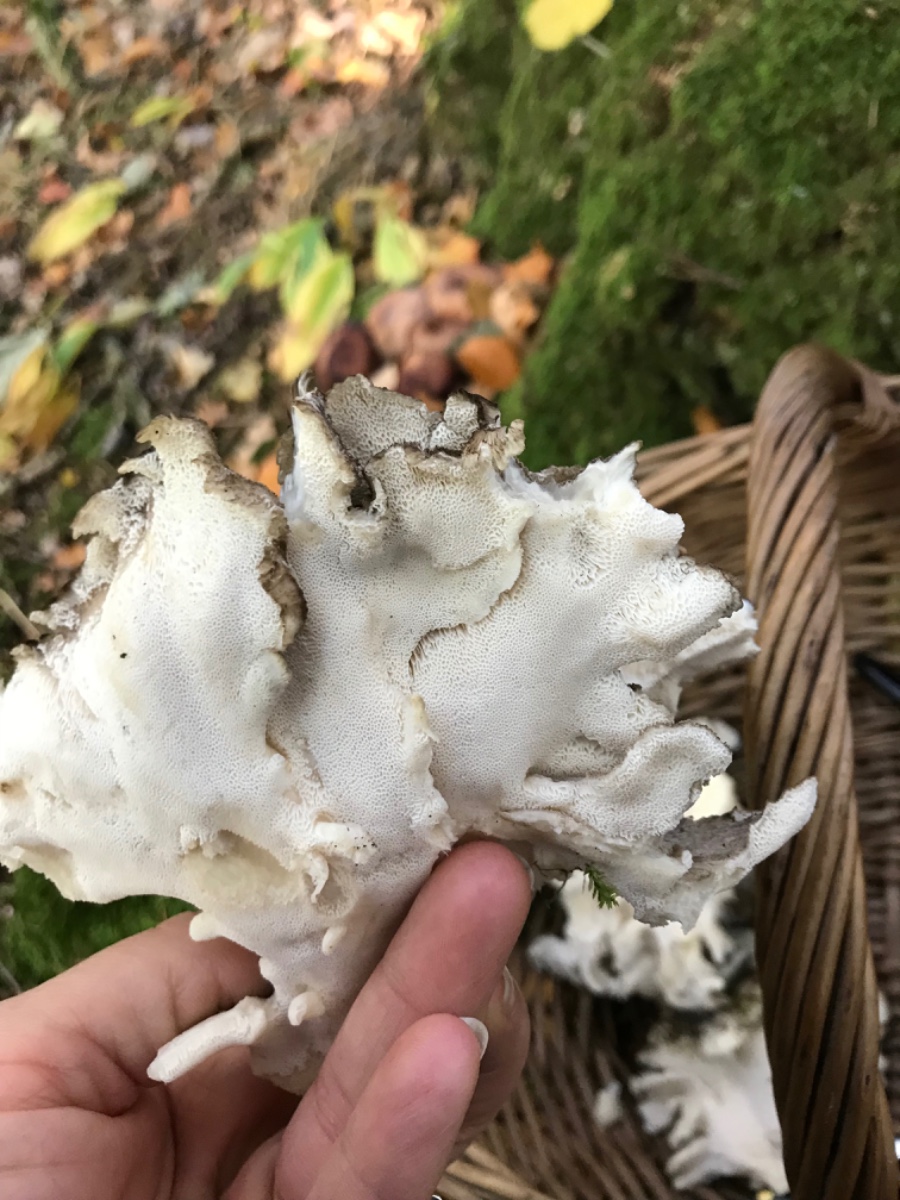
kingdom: Fungi
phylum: Basidiomycota
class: Agaricomycetes
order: Polyporales
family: Grifolaceae
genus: Grifola
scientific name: Grifola frondosa
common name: tueporesvamp
